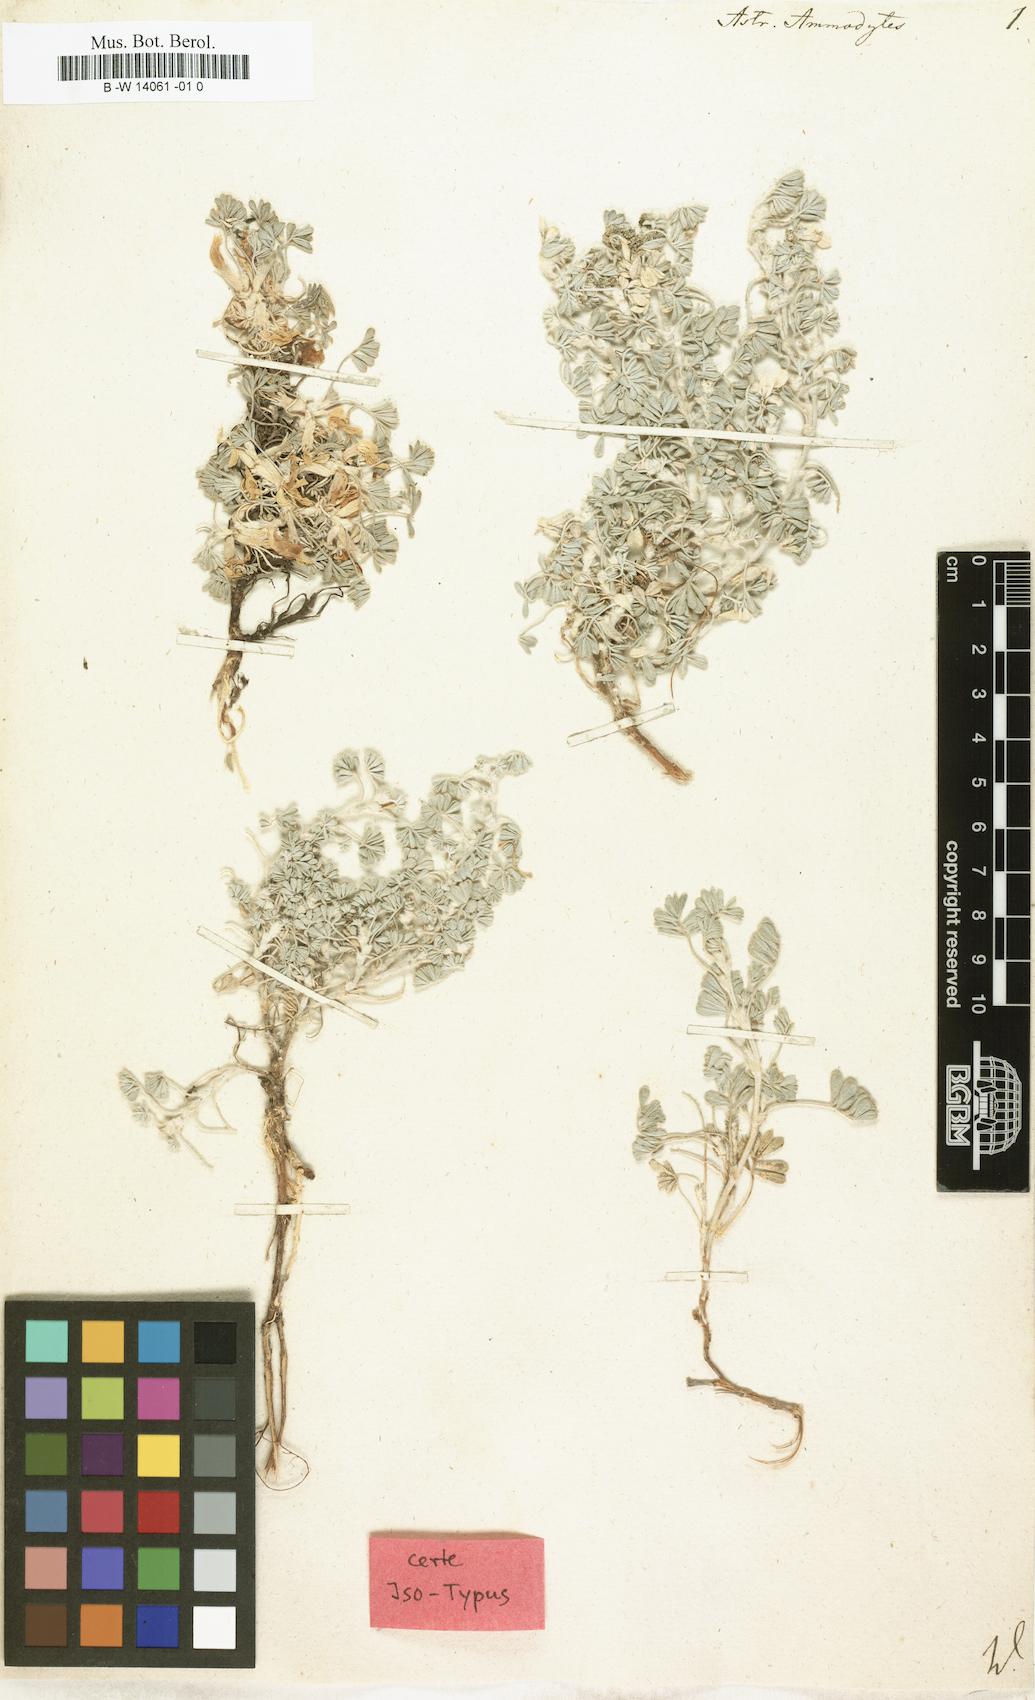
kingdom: Plantae
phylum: Tracheophyta
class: Magnoliopsida
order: Fabales
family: Fabaceae
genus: Astragalus
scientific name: Astragalus ammodytes
